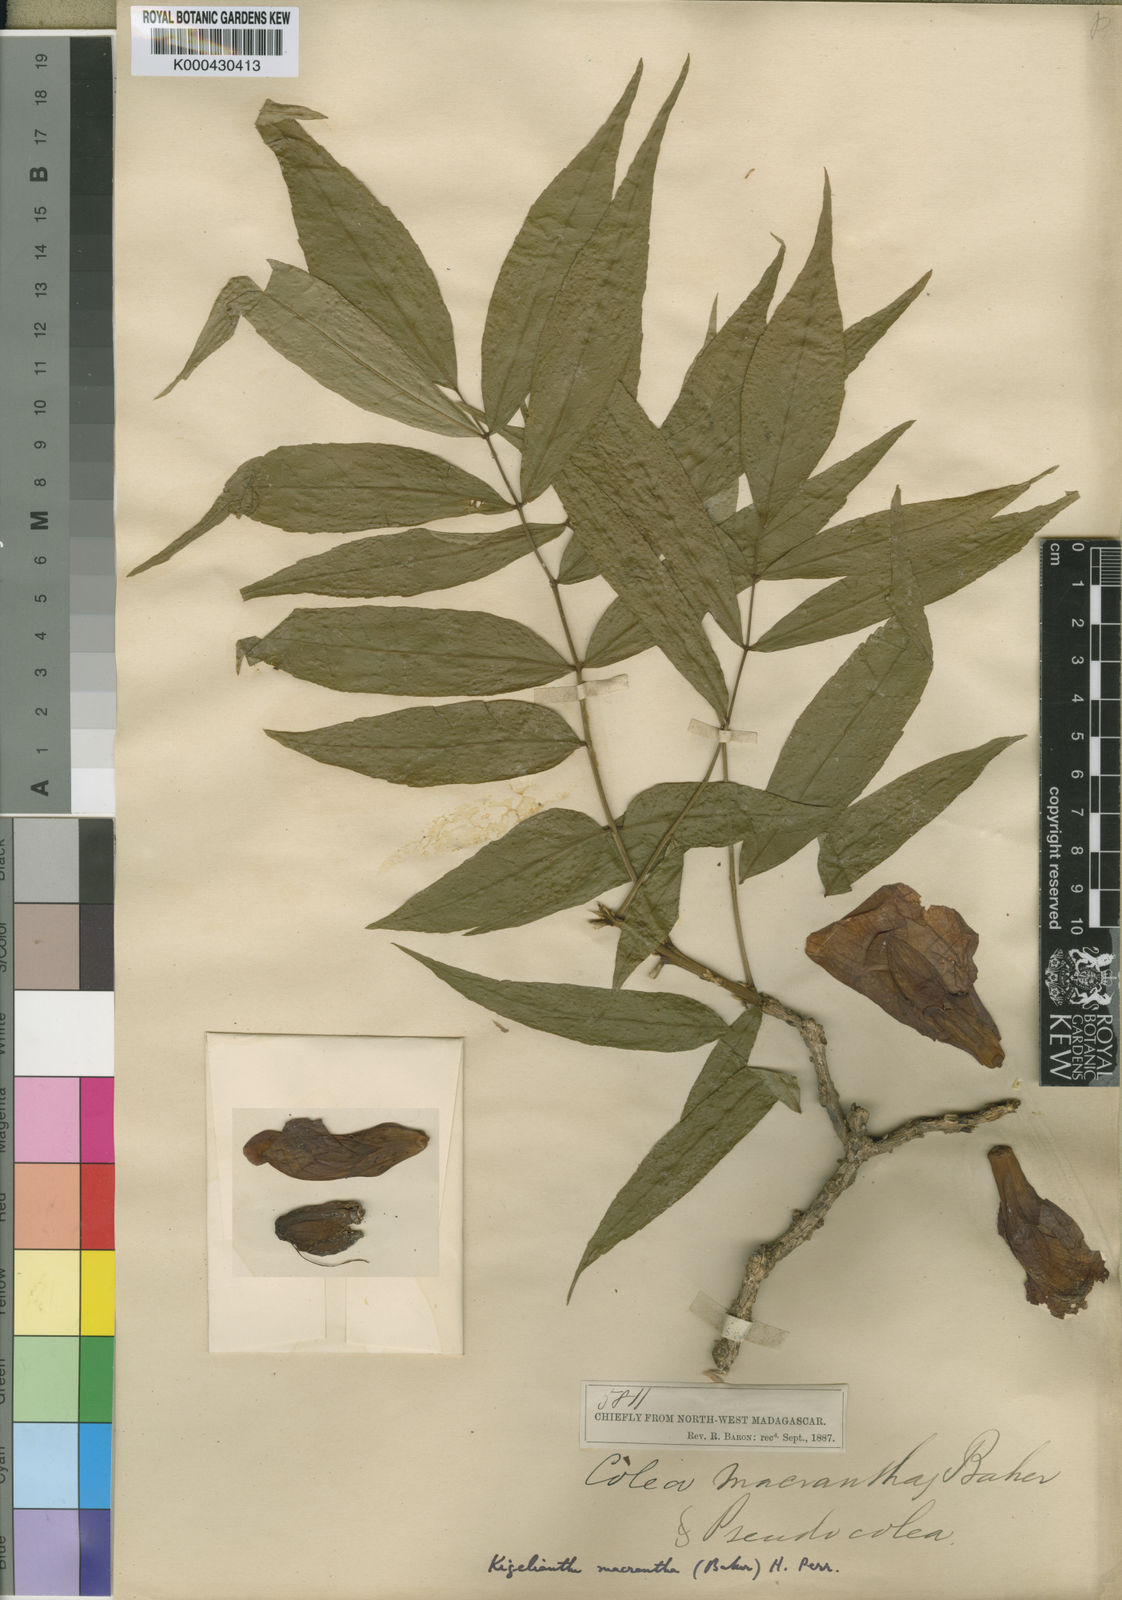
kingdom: Plantae
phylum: Tracheophyta
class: Magnoliopsida
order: Lamiales
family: Bignoniaceae
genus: Fernandoa
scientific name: Fernandoa macrantha
